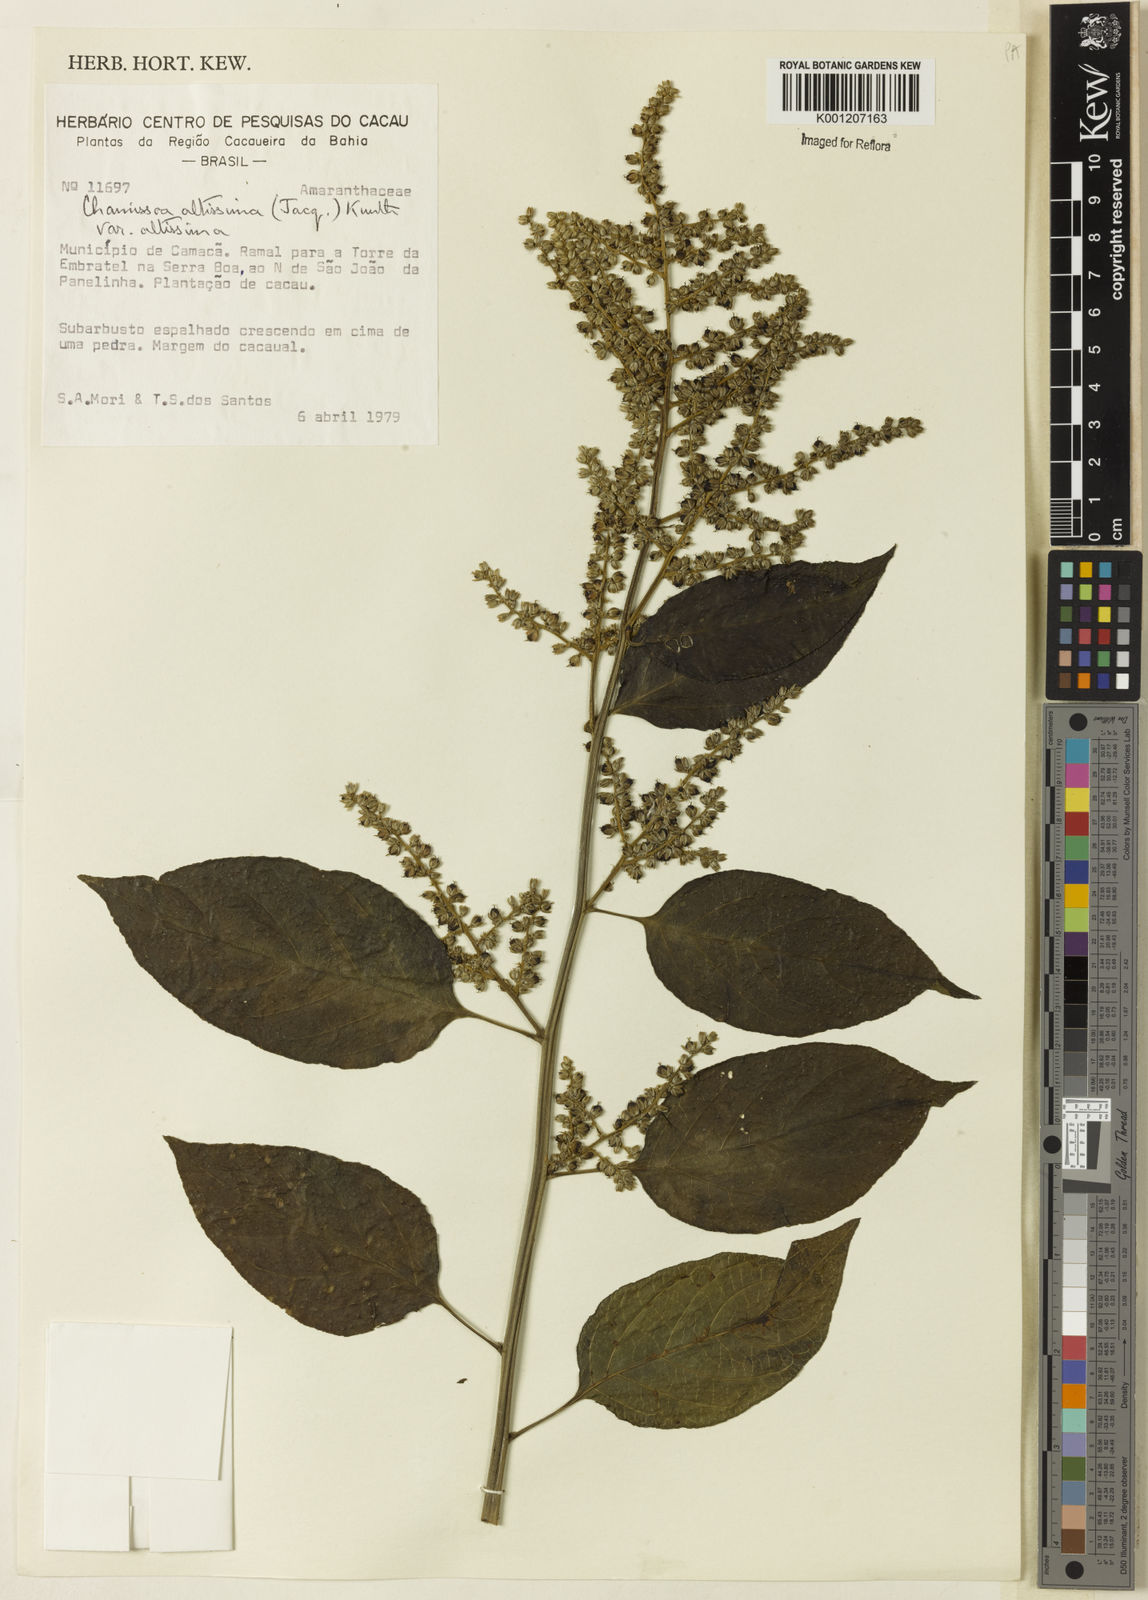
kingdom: Plantae
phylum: Tracheophyta
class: Magnoliopsida
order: Caryophyllales
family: Amaranthaceae
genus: Chamissoa
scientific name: Chamissoa altissima
